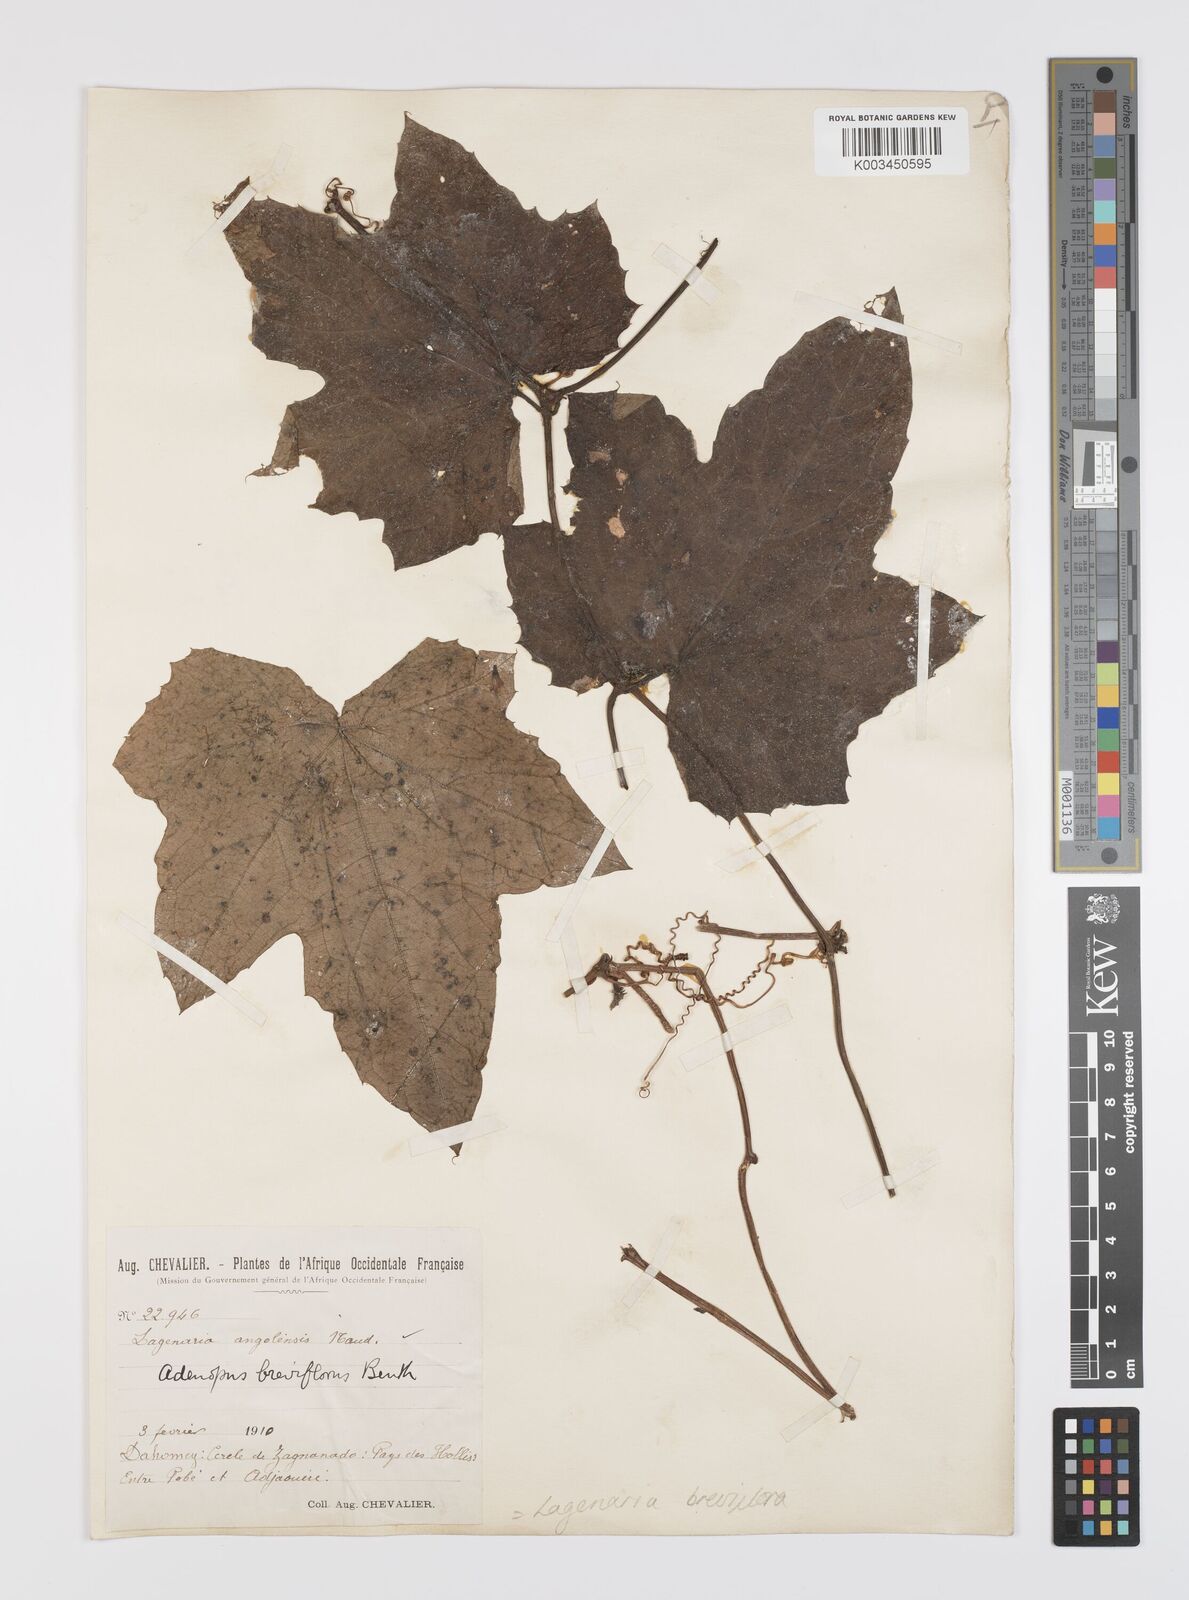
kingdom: Plantae
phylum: Tracheophyta
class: Magnoliopsida
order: Cucurbitales
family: Cucurbitaceae
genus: Lagenaria
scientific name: Lagenaria breviflora
